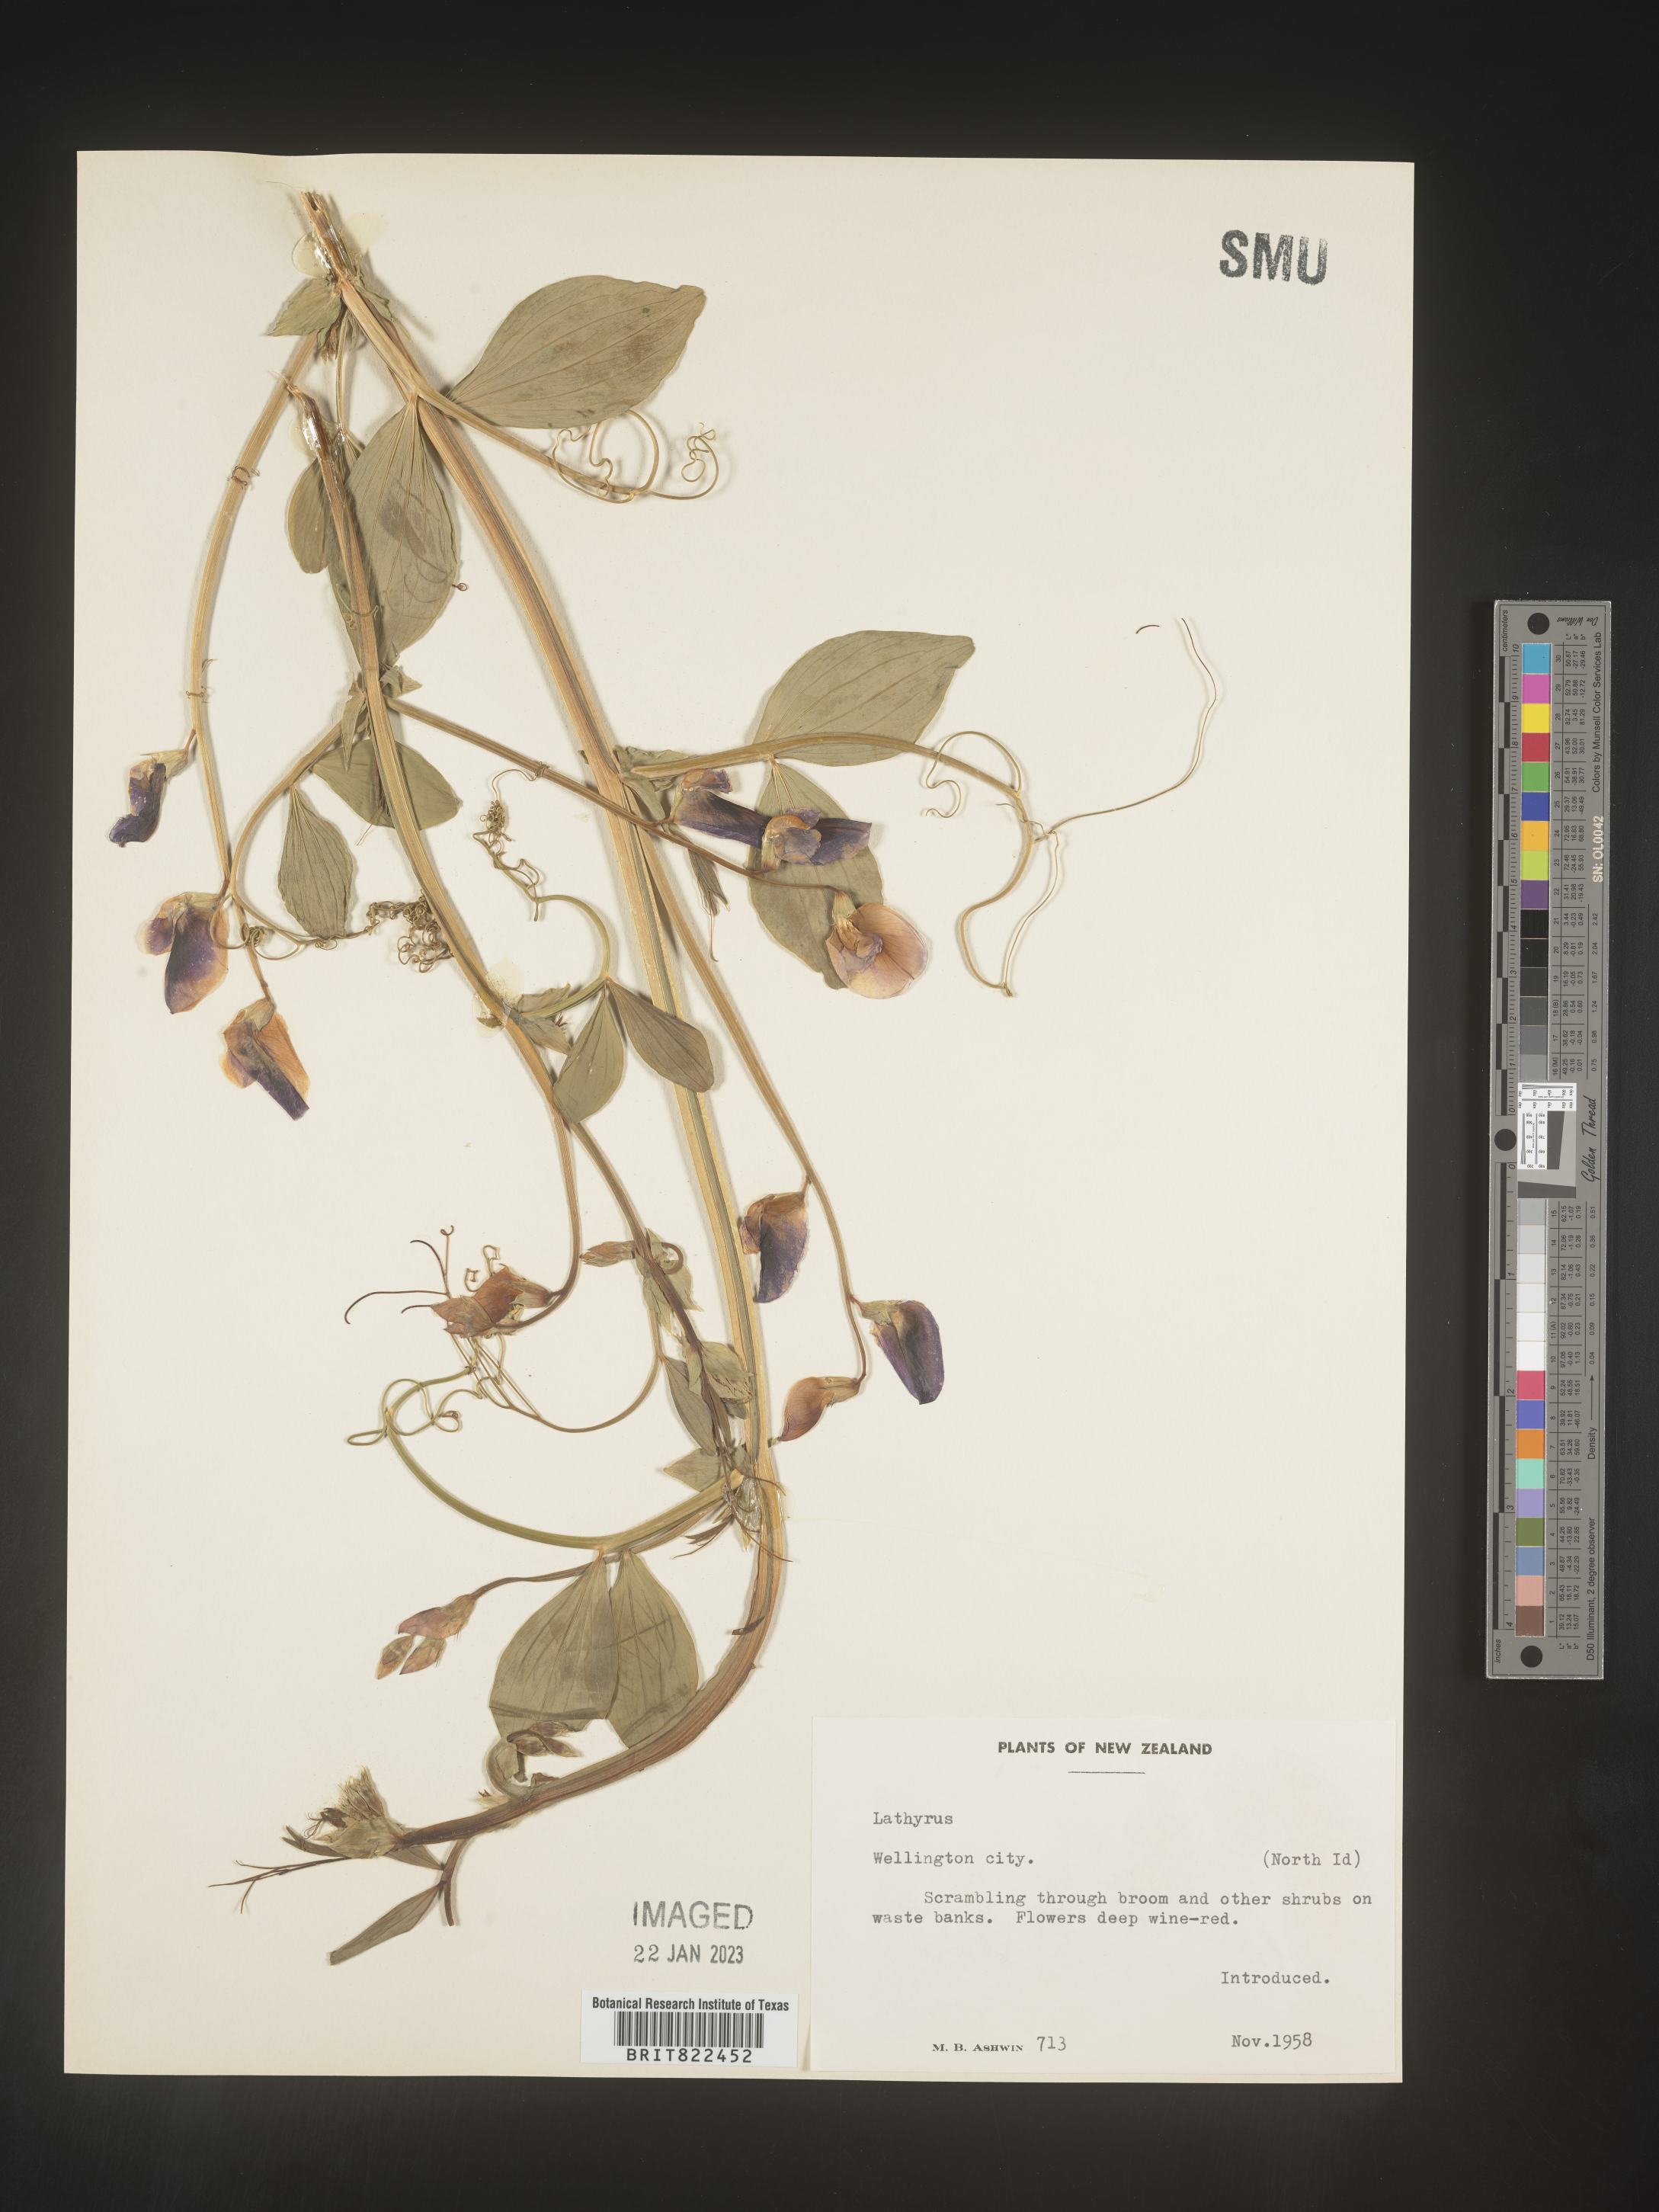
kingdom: Plantae
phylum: Tracheophyta
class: Magnoliopsida
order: Fabales
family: Fabaceae
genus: Lathyrus
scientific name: Lathyrus
